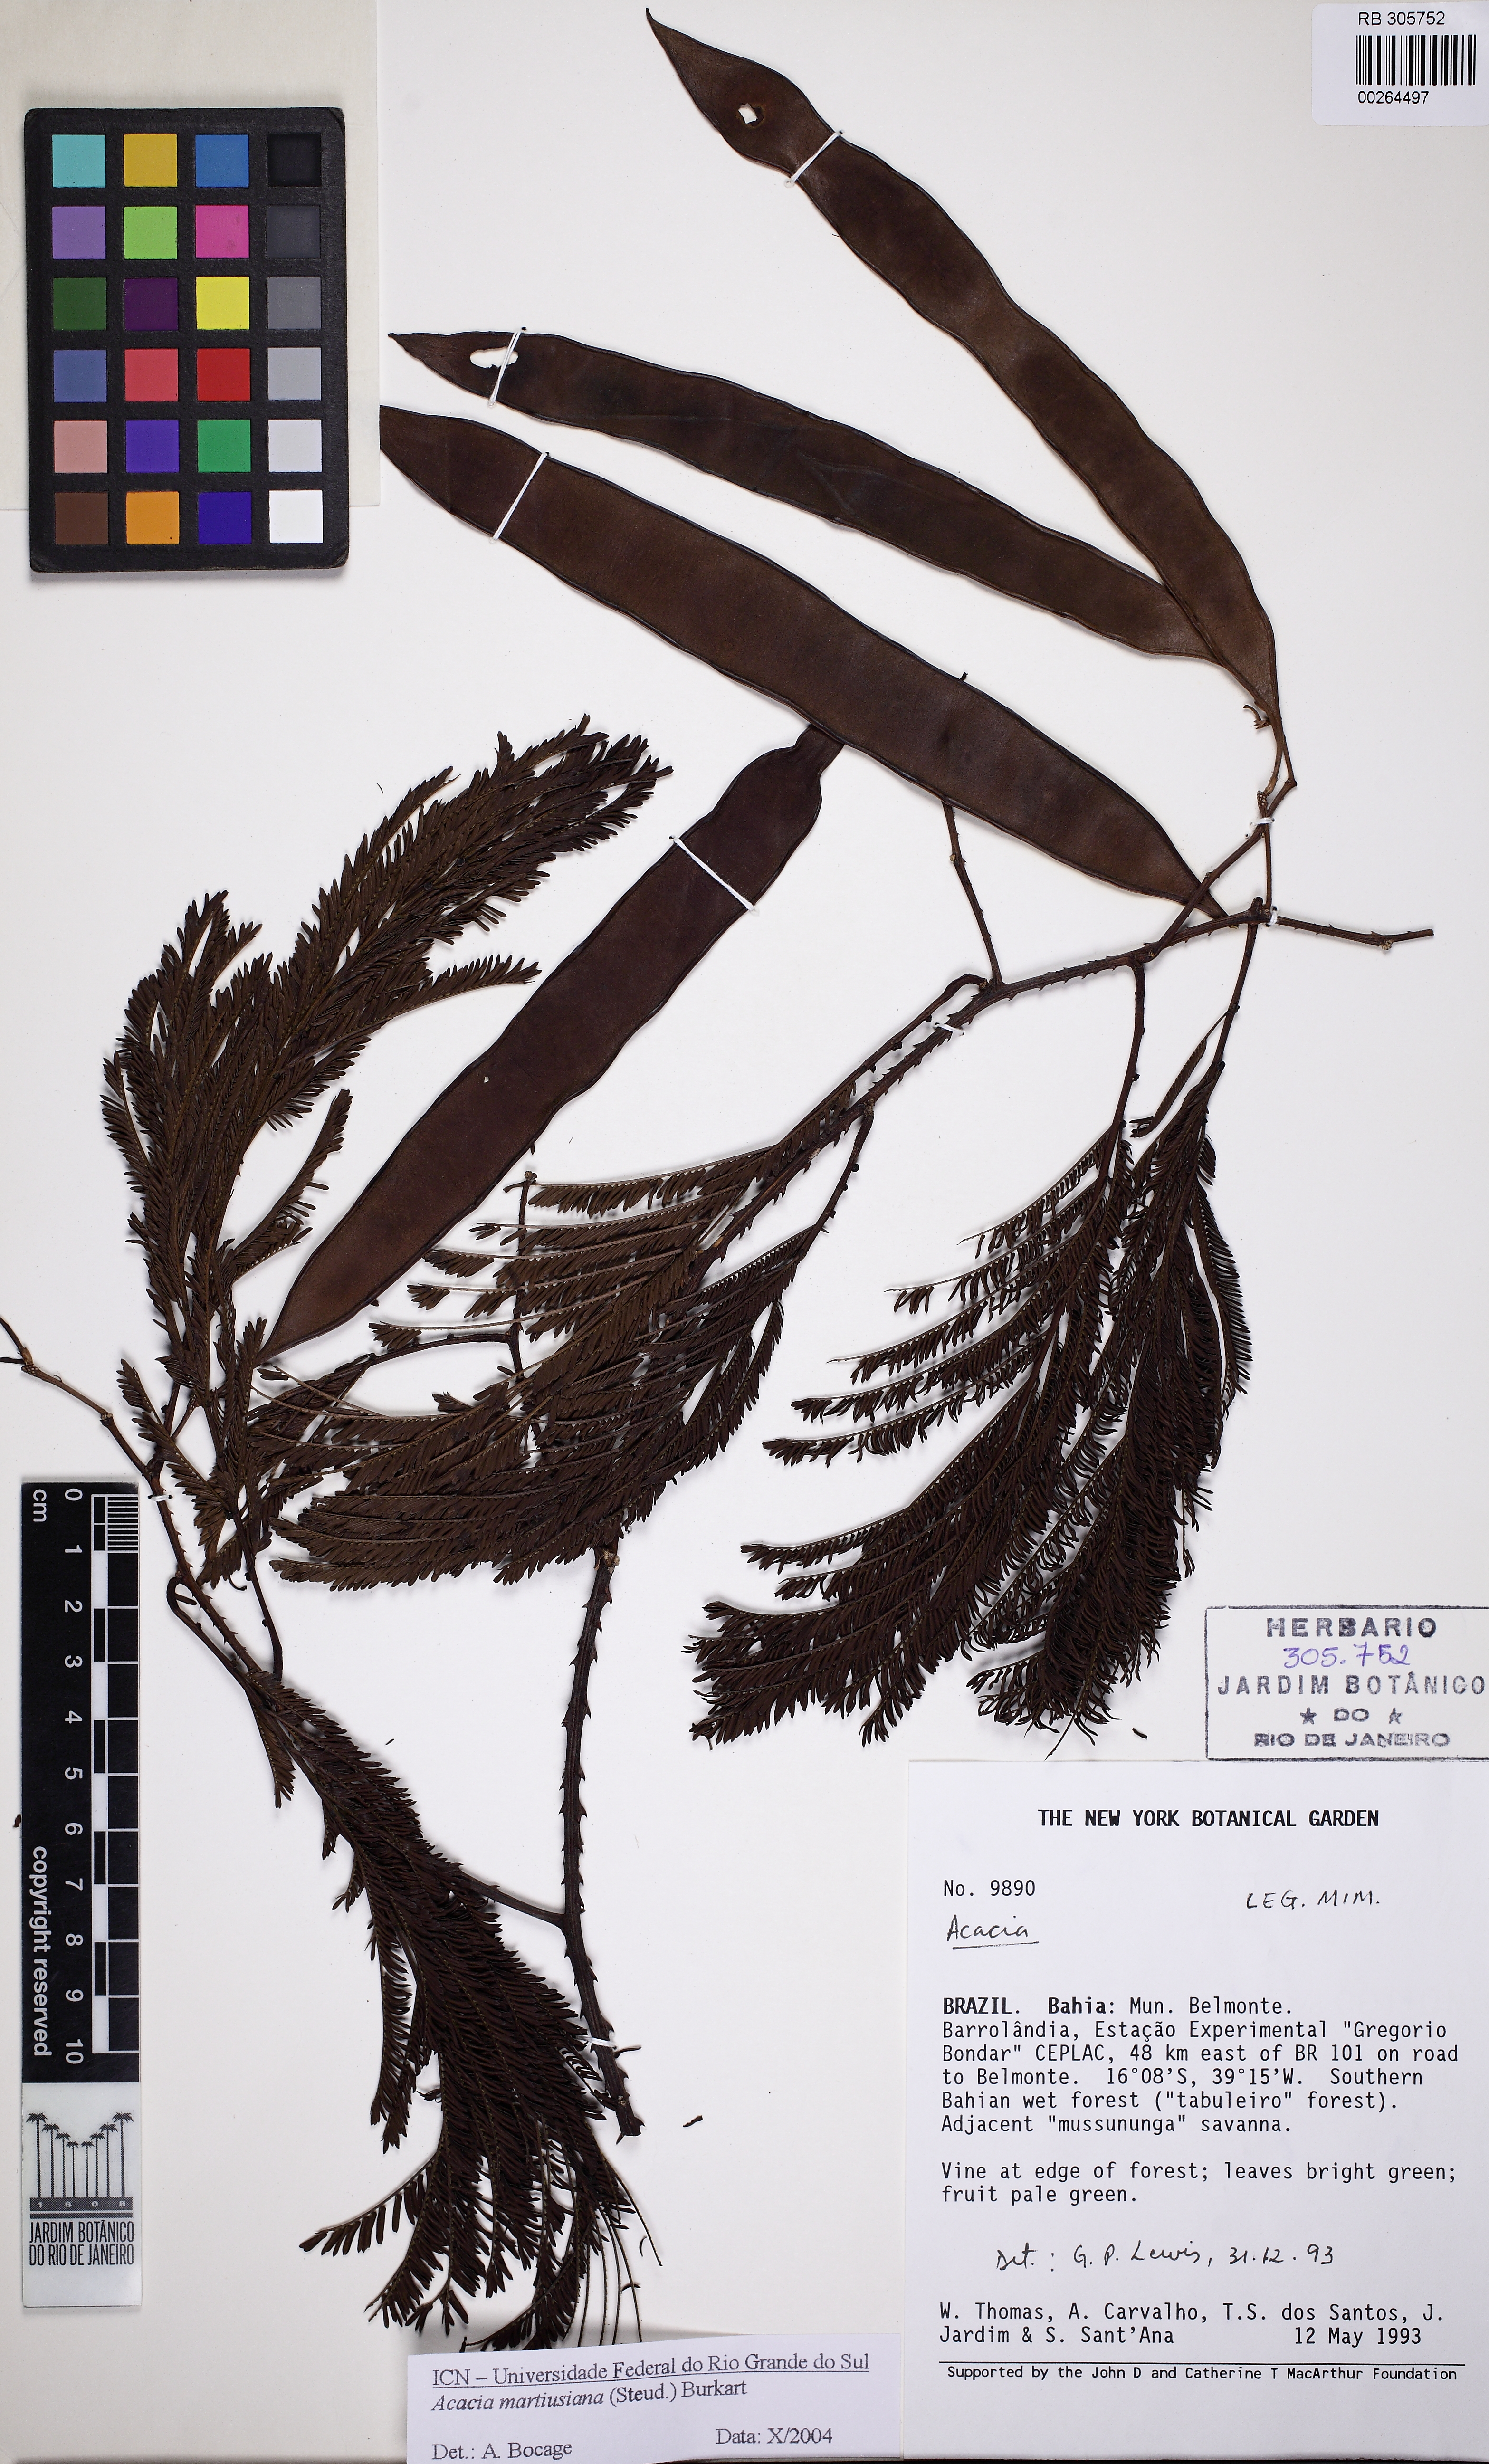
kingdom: Plantae
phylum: Tracheophyta
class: Magnoliopsida
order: Fabales
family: Fabaceae
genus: Senegalia
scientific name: Senegalia irwinii
